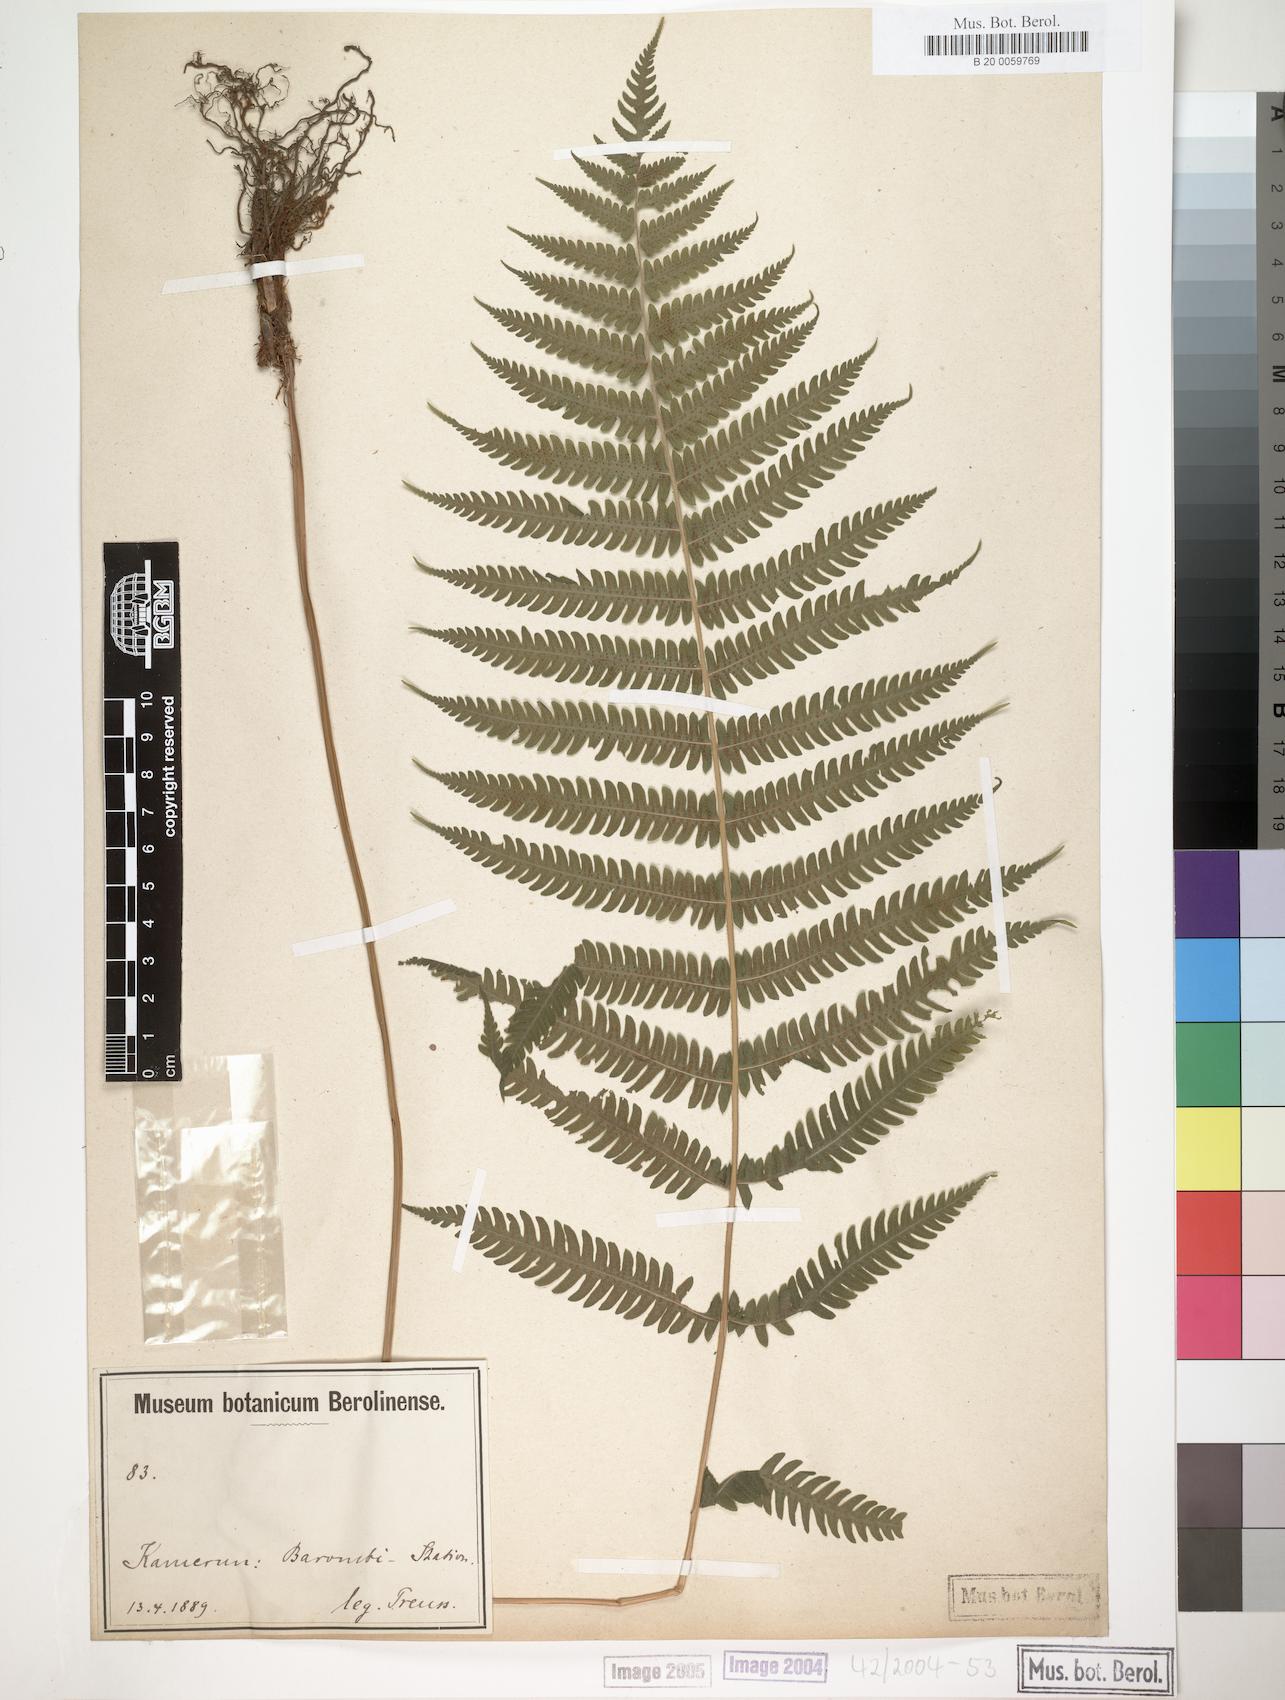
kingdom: Plantae
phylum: Tracheophyta
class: Polypodiopsida
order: Polypodiales
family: Thelypteridaceae
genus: Christella
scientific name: Christella dentata
